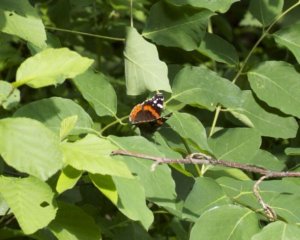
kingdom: Animalia
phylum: Arthropoda
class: Insecta
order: Lepidoptera
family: Nymphalidae
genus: Vanessa
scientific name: Vanessa atalanta
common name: Red Admiral
